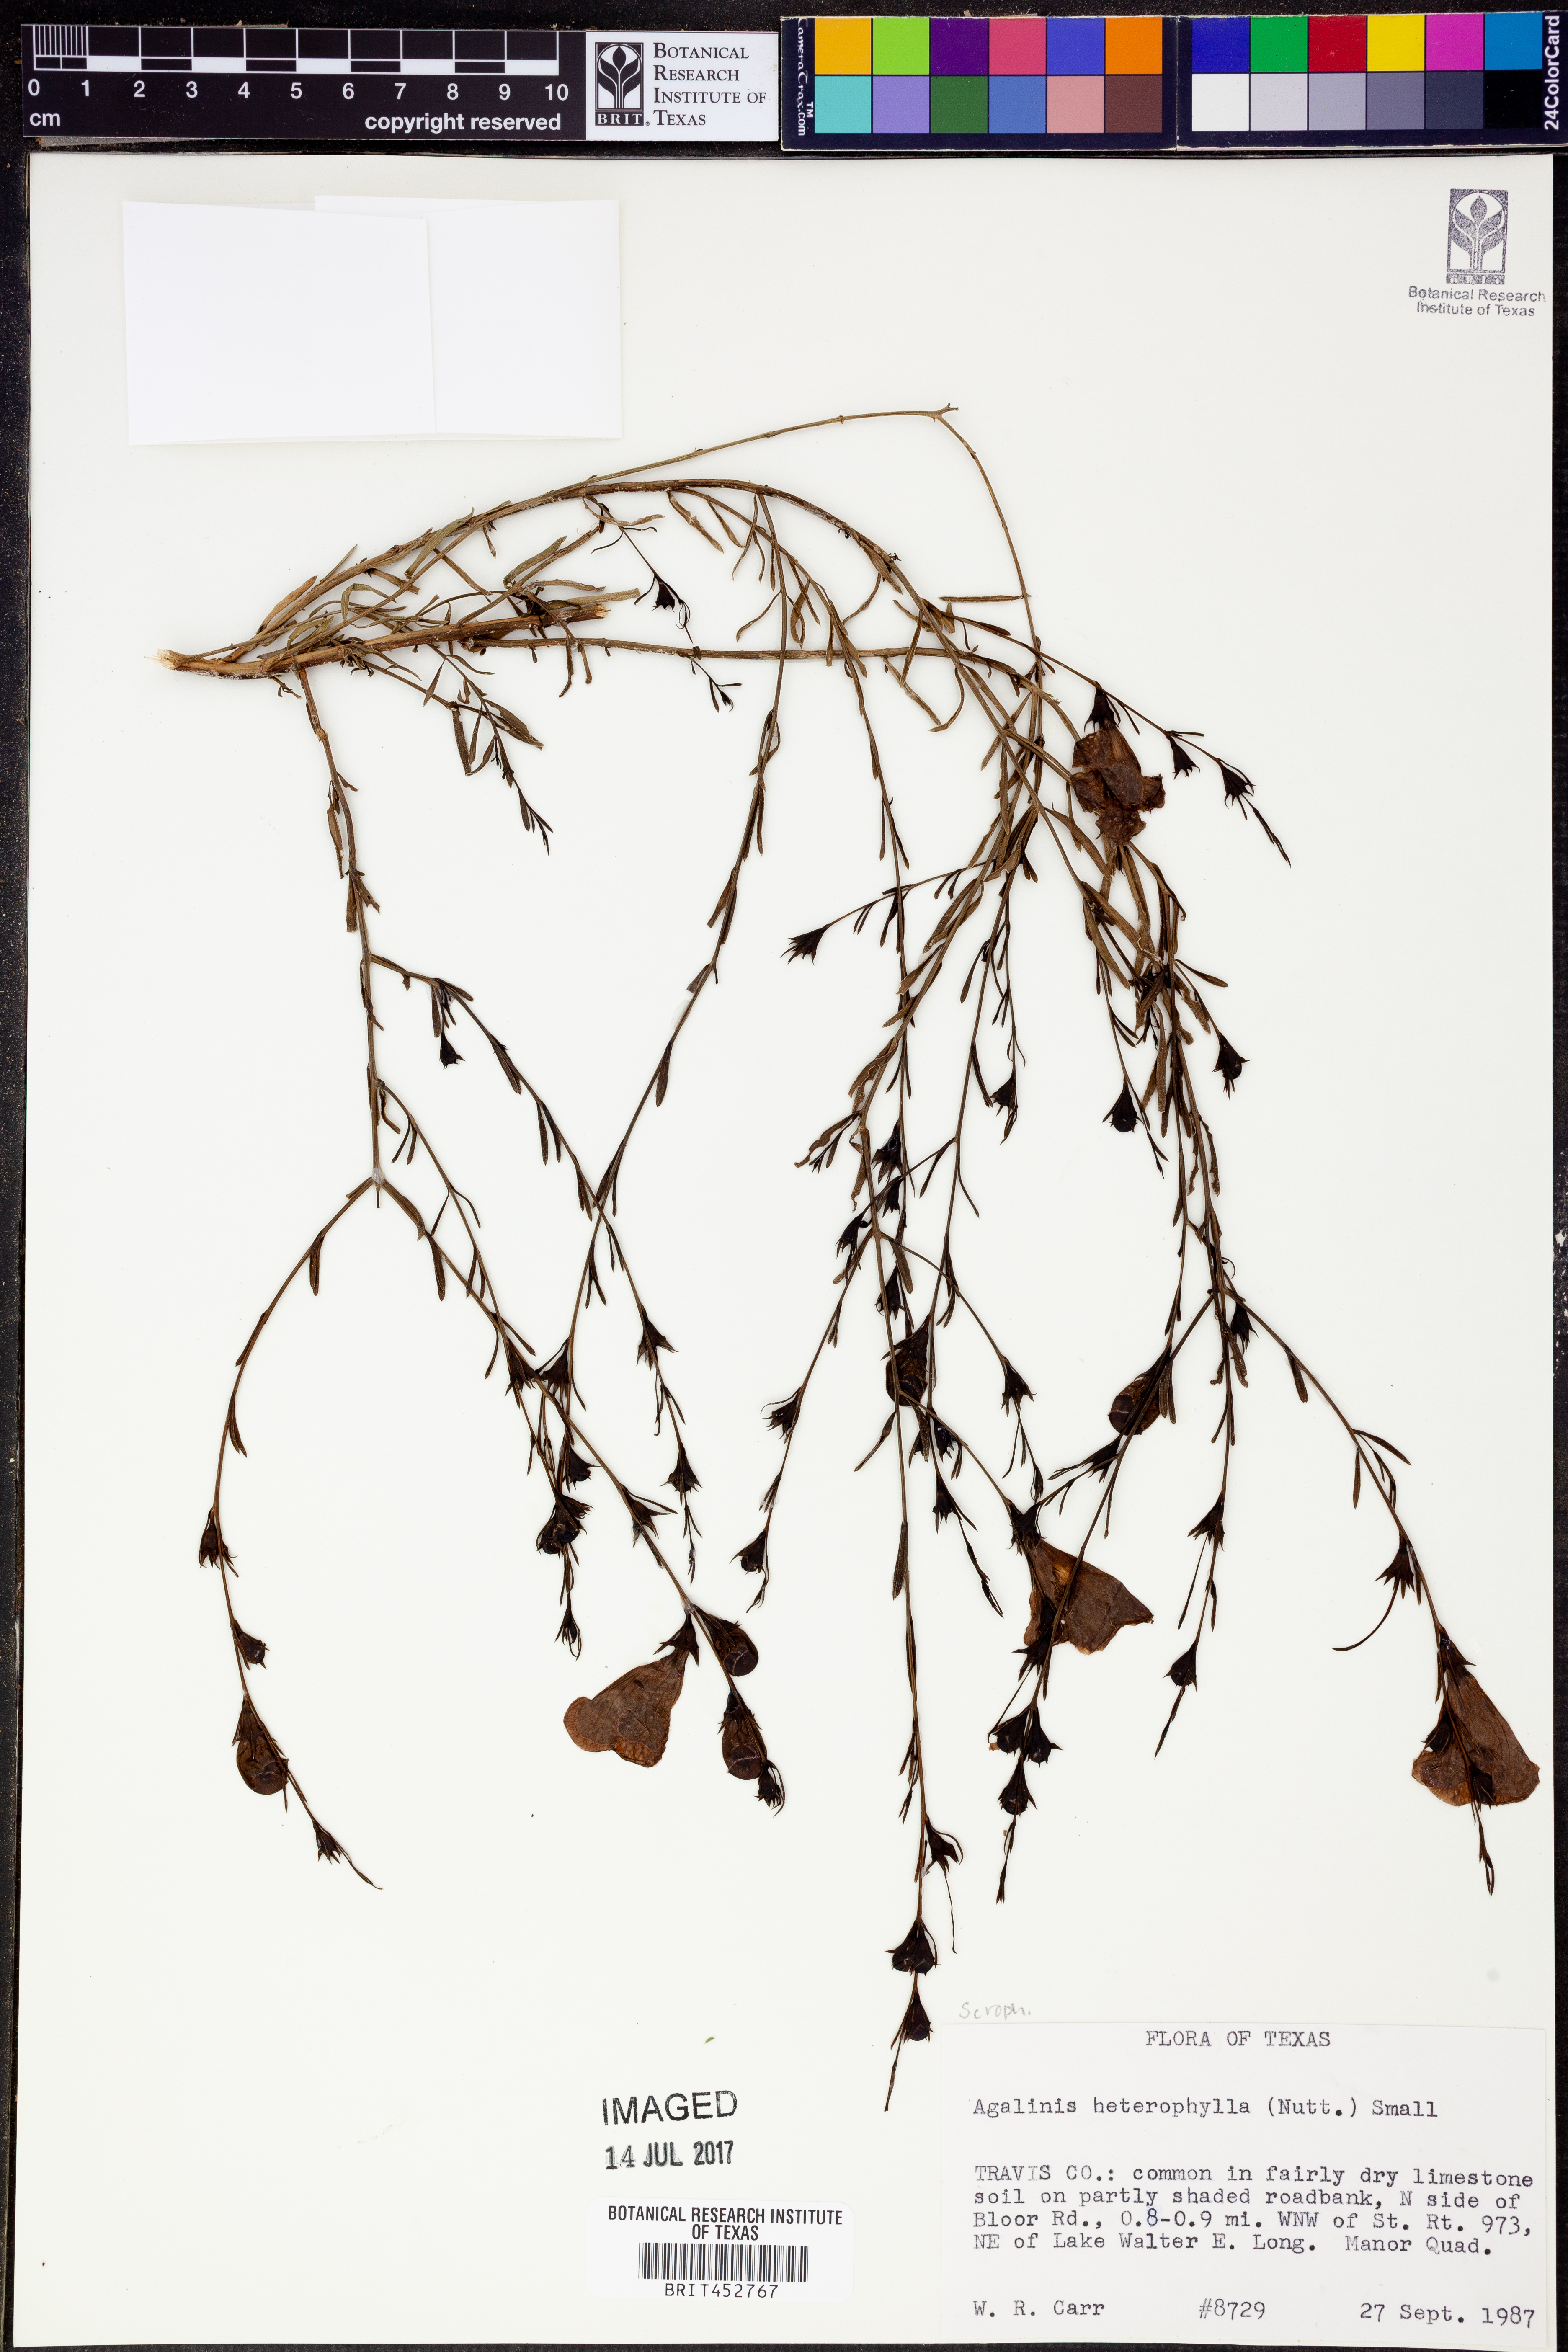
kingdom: Plantae
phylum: Tracheophyta
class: Magnoliopsida
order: Lamiales
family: Orobanchaceae
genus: Agalinis
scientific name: Agalinis heterophylla
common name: Prairie agalinis
